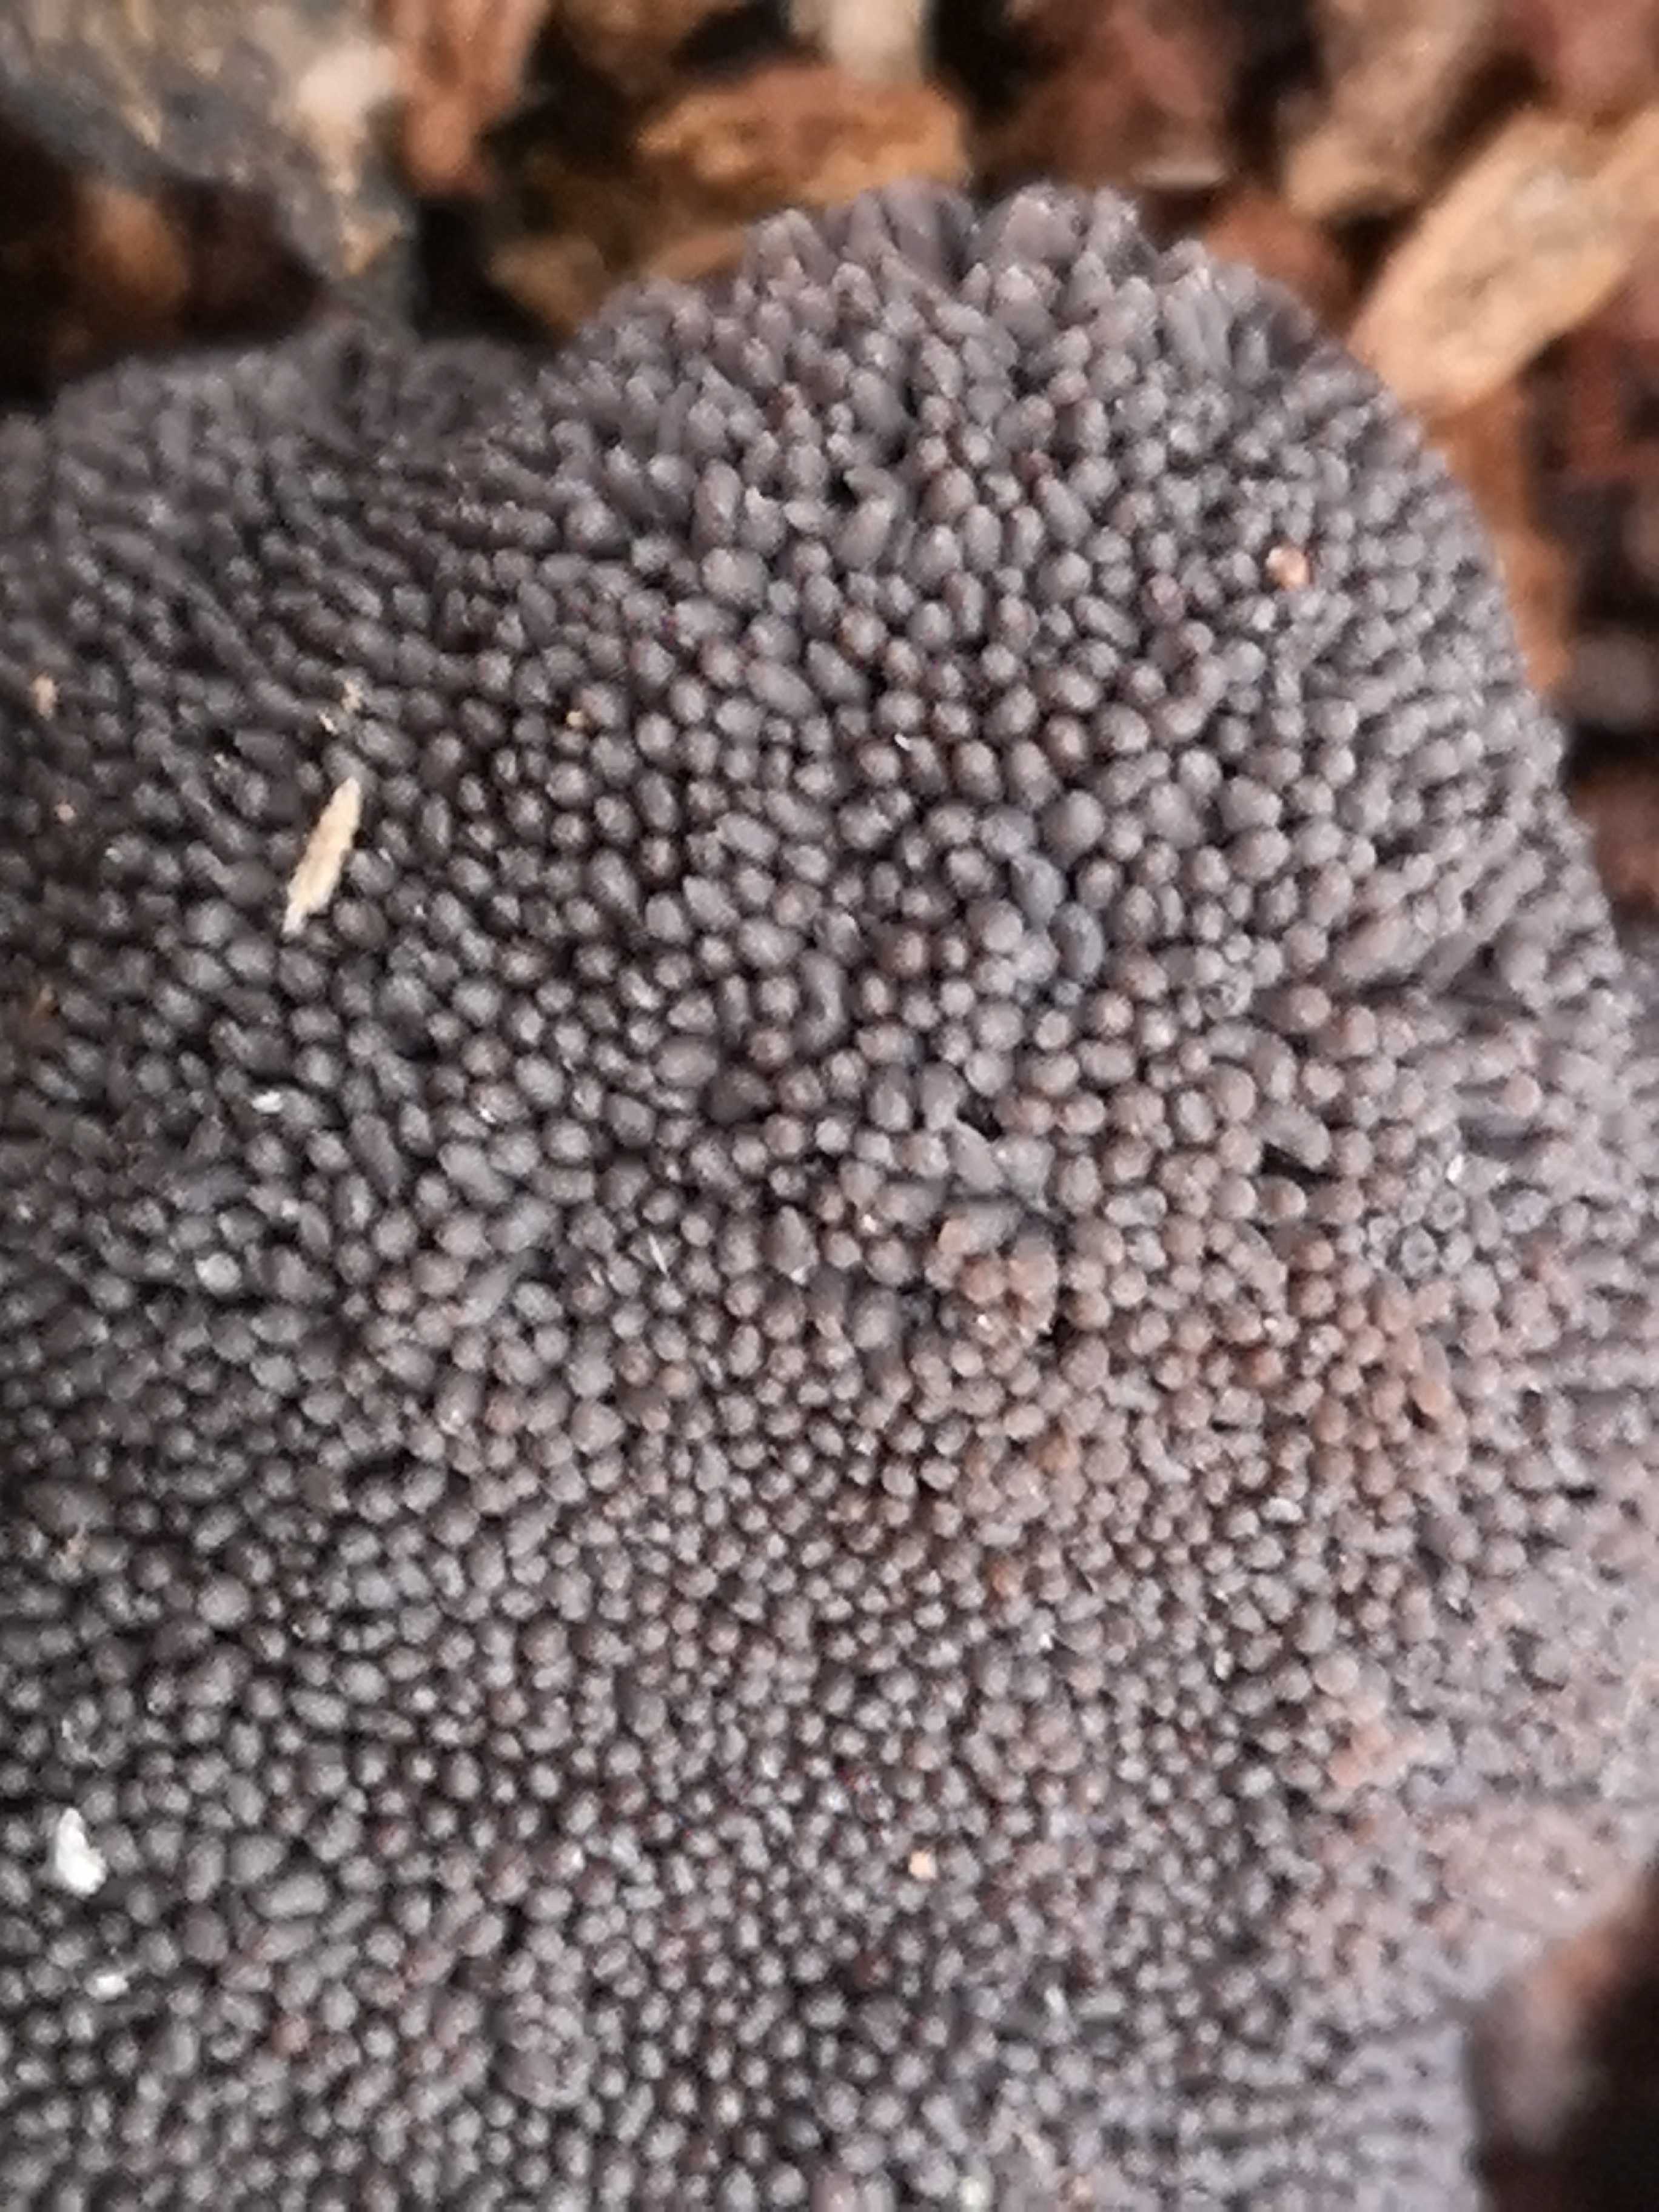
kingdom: Protozoa
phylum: Mycetozoa
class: Myxomycetes
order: Cribrariales
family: Tubiferaceae
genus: Tubifera
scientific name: Tubifera ferruginosa
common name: kanel-støvrør
